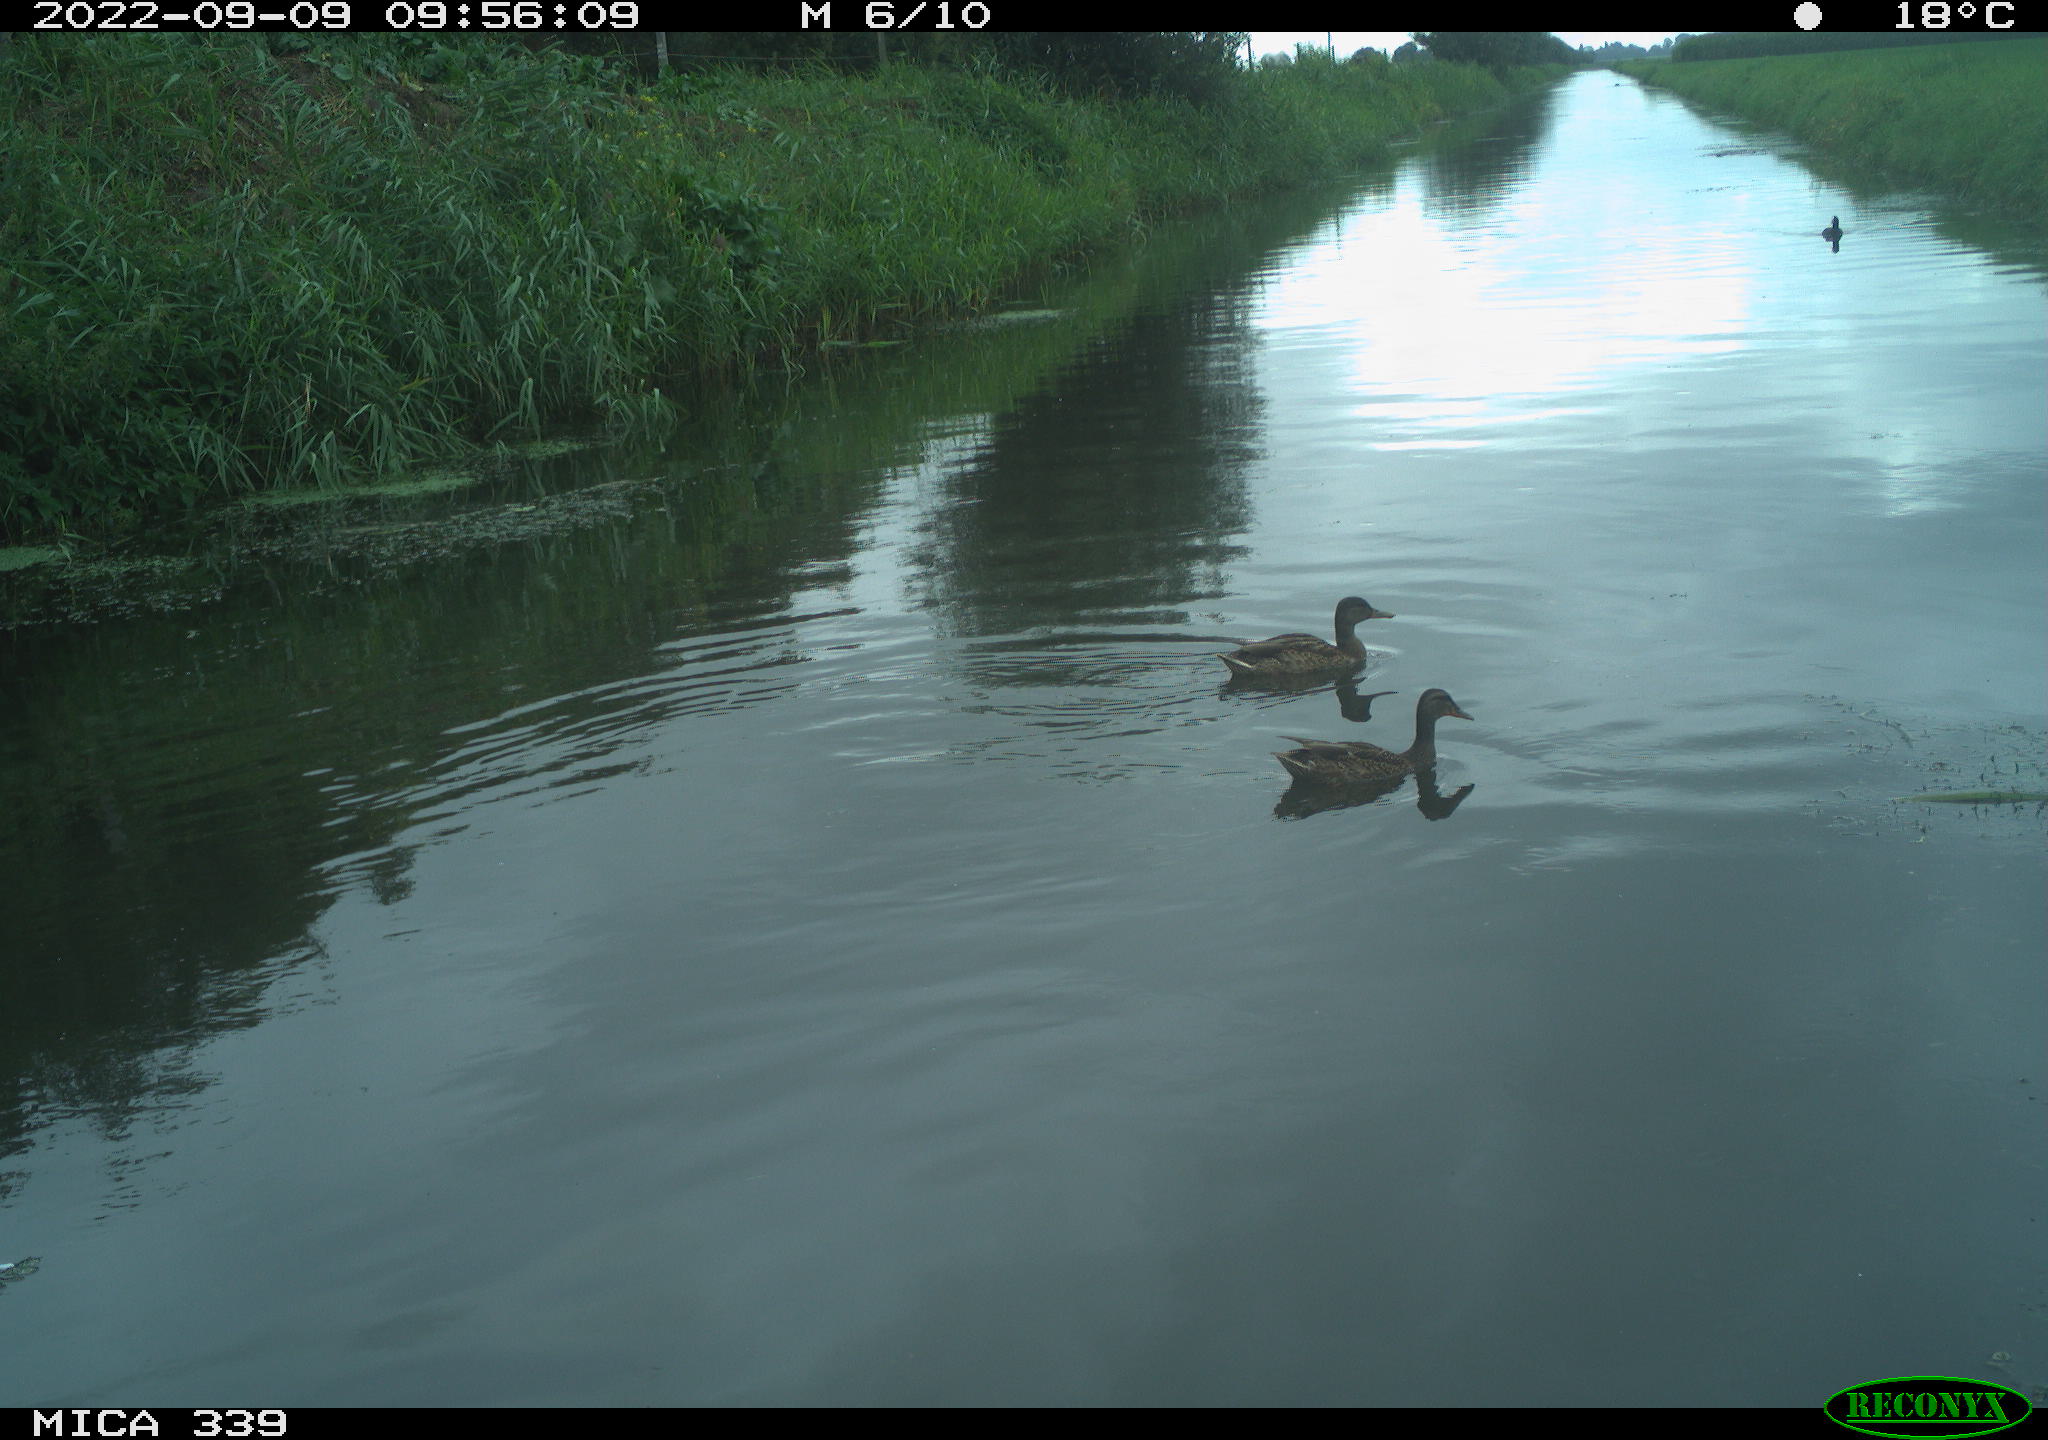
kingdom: Animalia
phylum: Chordata
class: Aves
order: Anseriformes
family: Anatidae
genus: Anas
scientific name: Anas
